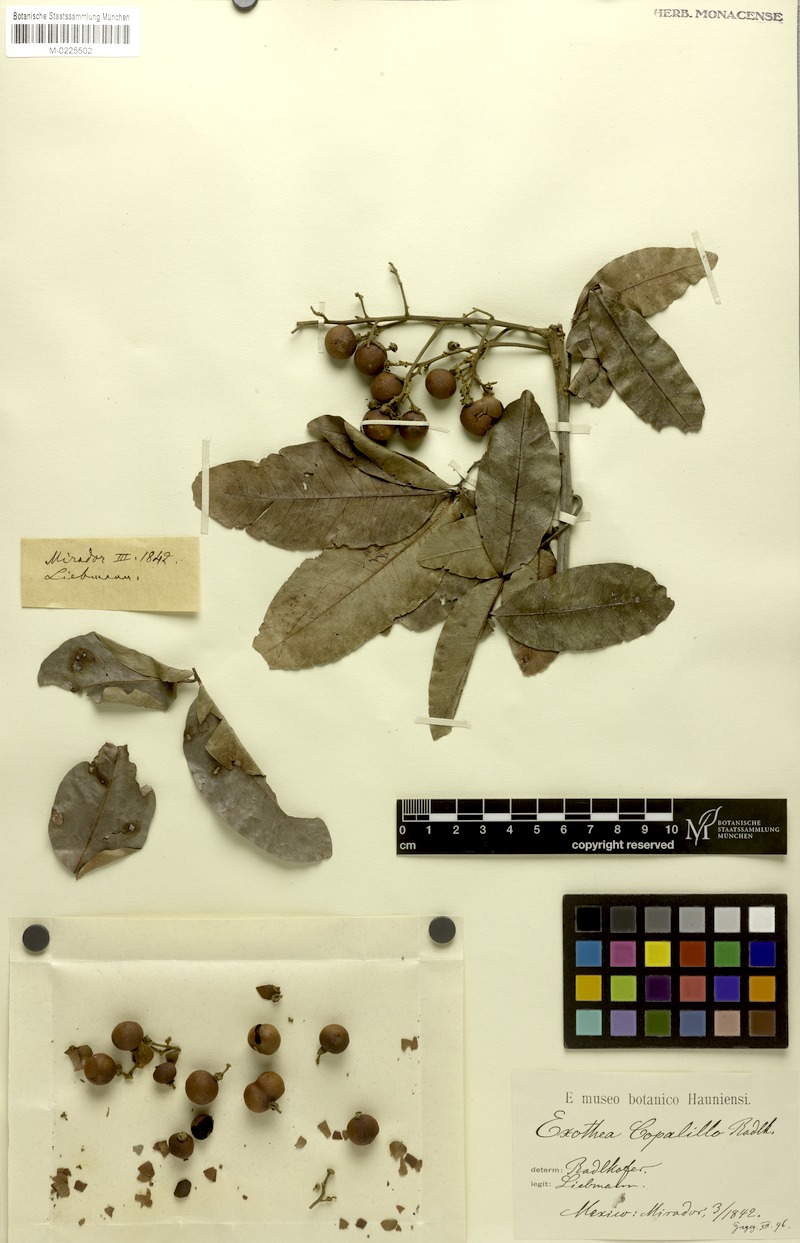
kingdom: Plantae
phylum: Tracheophyta
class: Magnoliopsida
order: Sapindales
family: Sapindaceae
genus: Exothea
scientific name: Exothea copalillo
